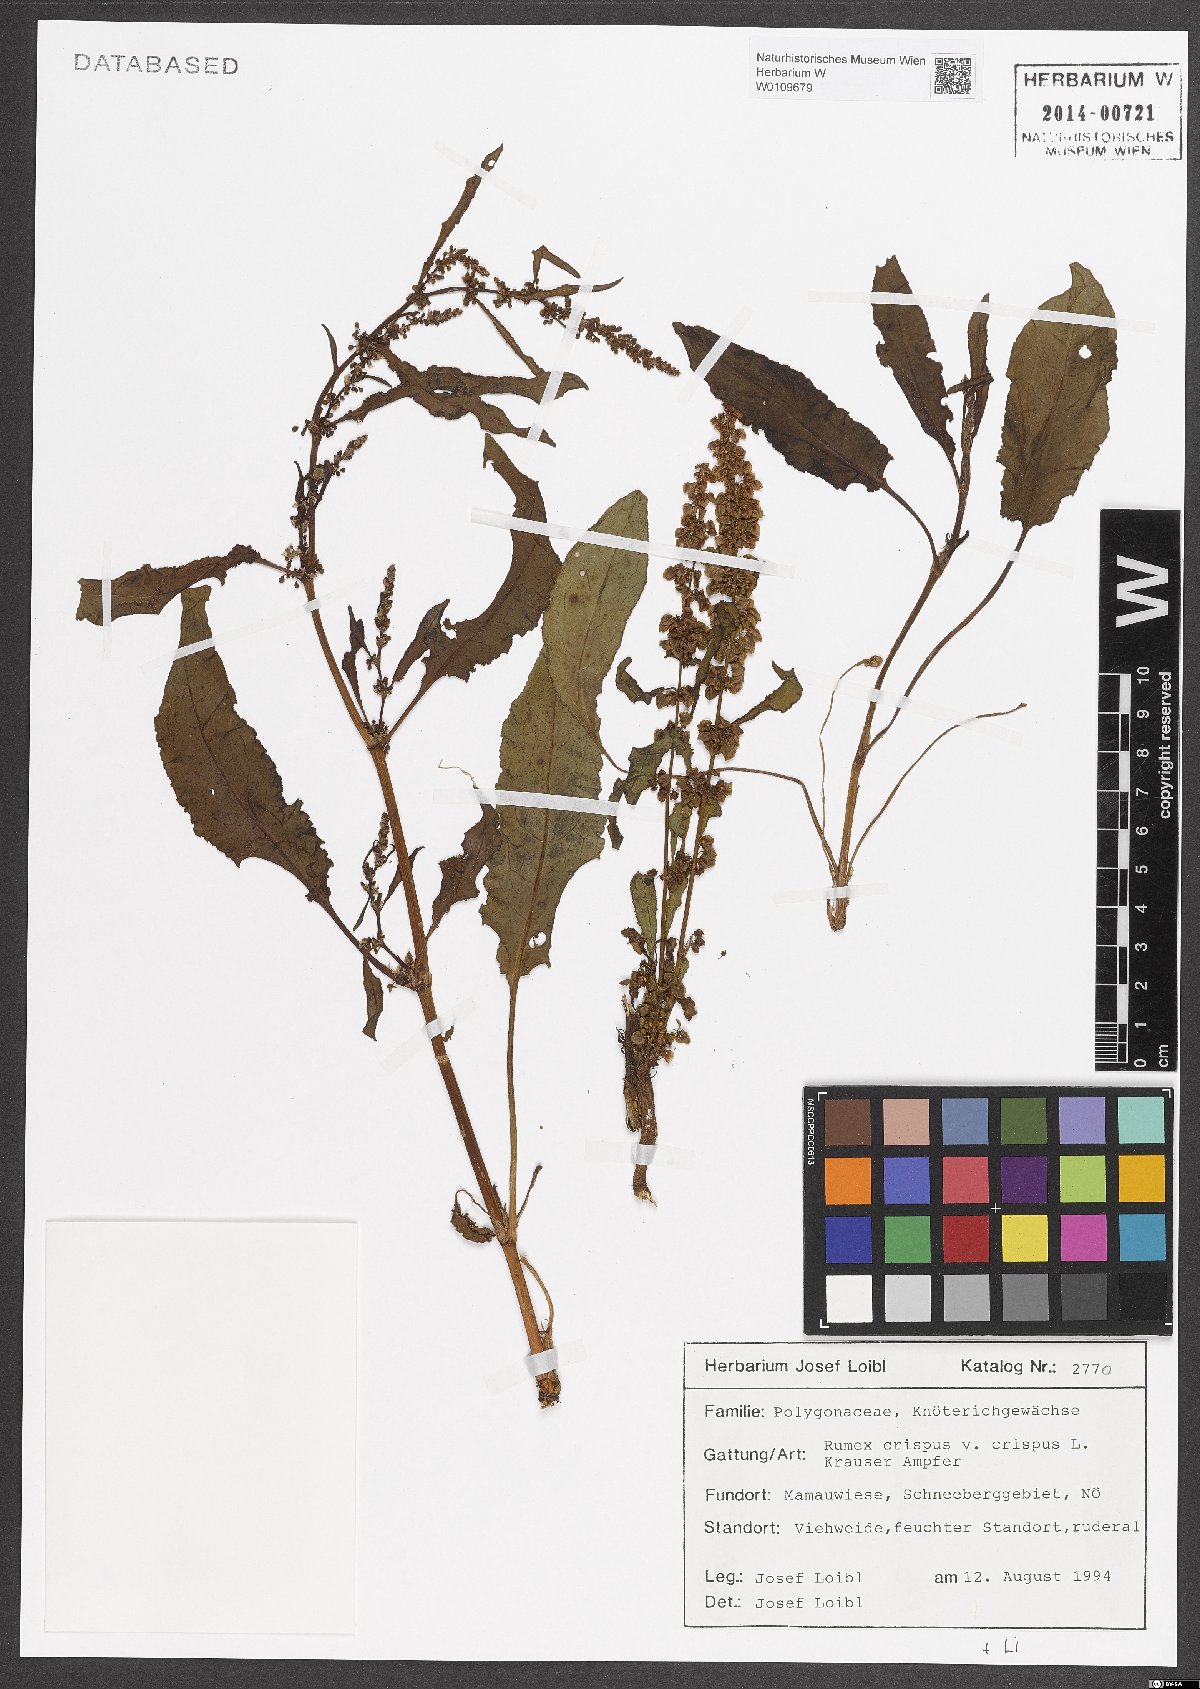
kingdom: Plantae
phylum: Tracheophyta
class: Magnoliopsida
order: Caryophyllales
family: Polygonaceae
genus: Rumex
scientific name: Rumex crispus
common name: Curled dock
